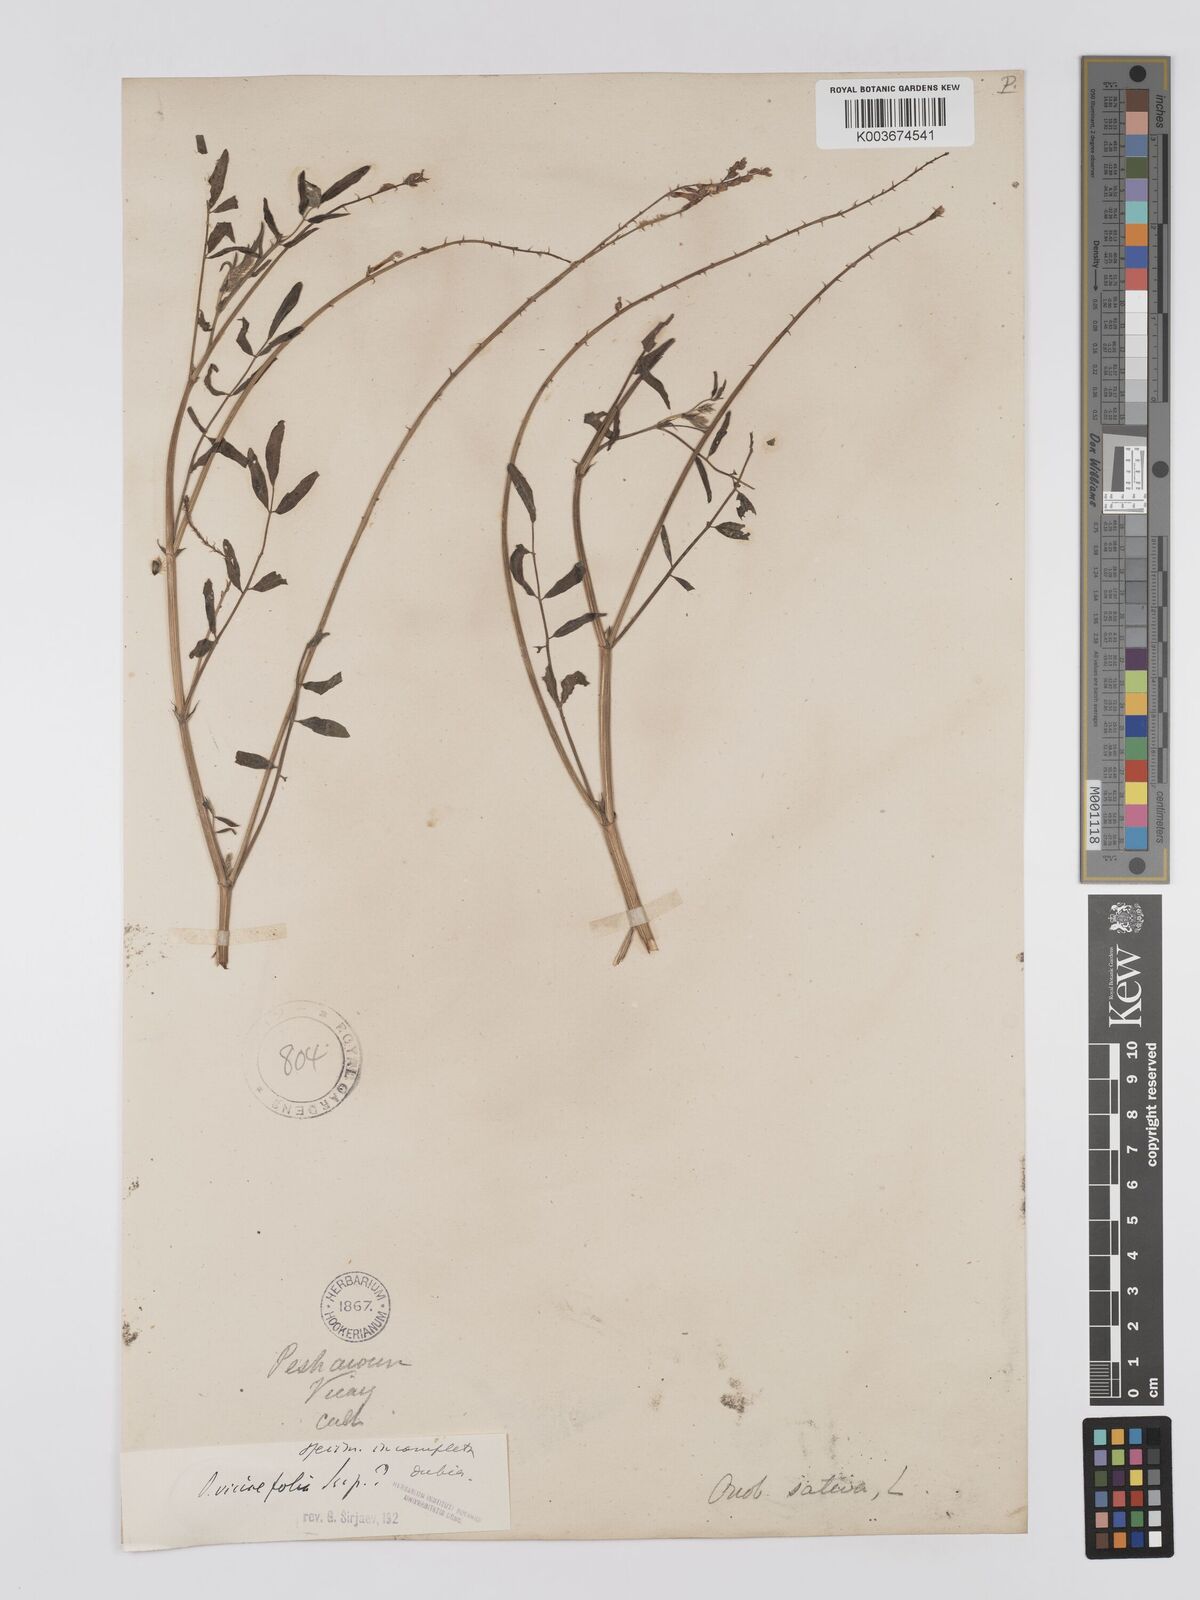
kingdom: Plantae
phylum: Tracheophyta
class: Magnoliopsida
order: Fabales
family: Fabaceae
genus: Onobrychis
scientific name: Onobrychis viciifolia
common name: Sainfoin
